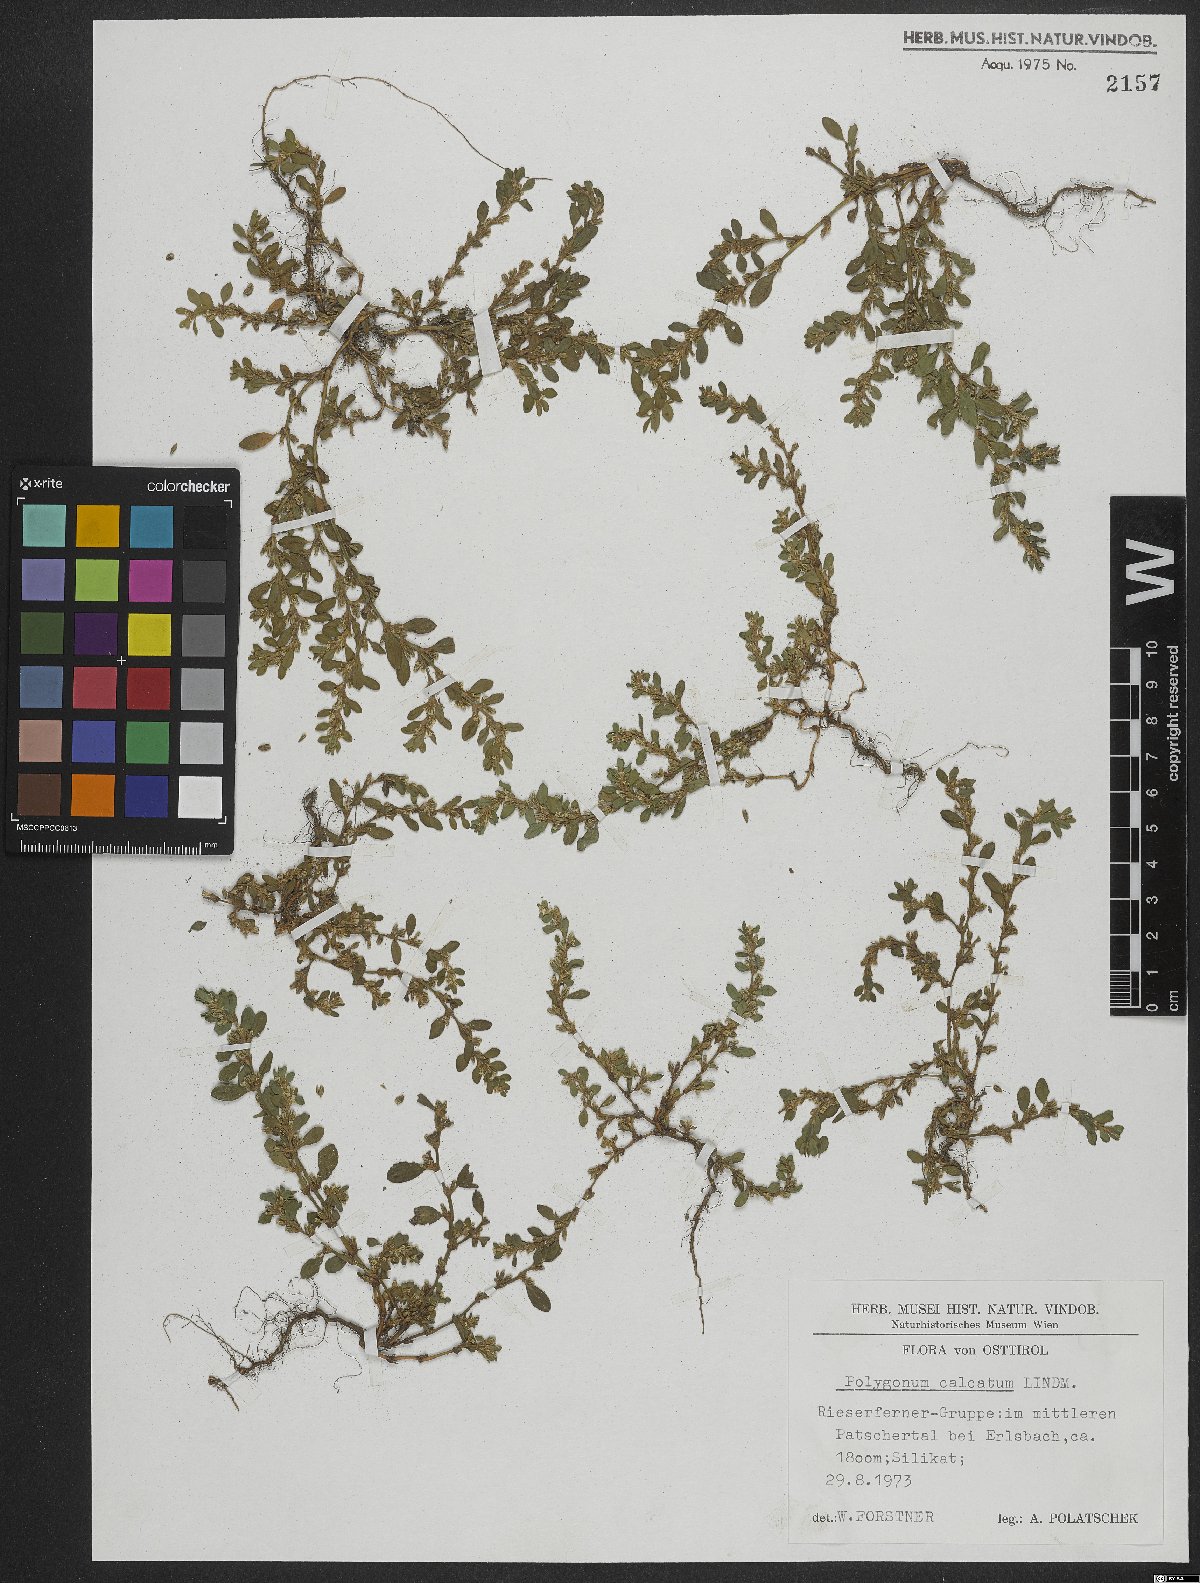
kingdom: Plantae
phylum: Tracheophyta
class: Magnoliopsida
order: Caryophyllales
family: Polygonaceae
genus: Polygonum
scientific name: Polygonum arenastrum
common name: Equal-leaved knotgrass
